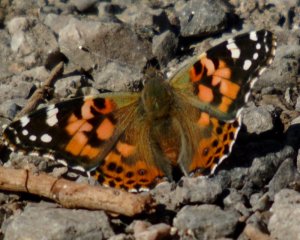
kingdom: Animalia
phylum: Arthropoda
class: Insecta
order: Lepidoptera
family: Nymphalidae
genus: Vanessa
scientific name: Vanessa cardui
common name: Painted Lady
